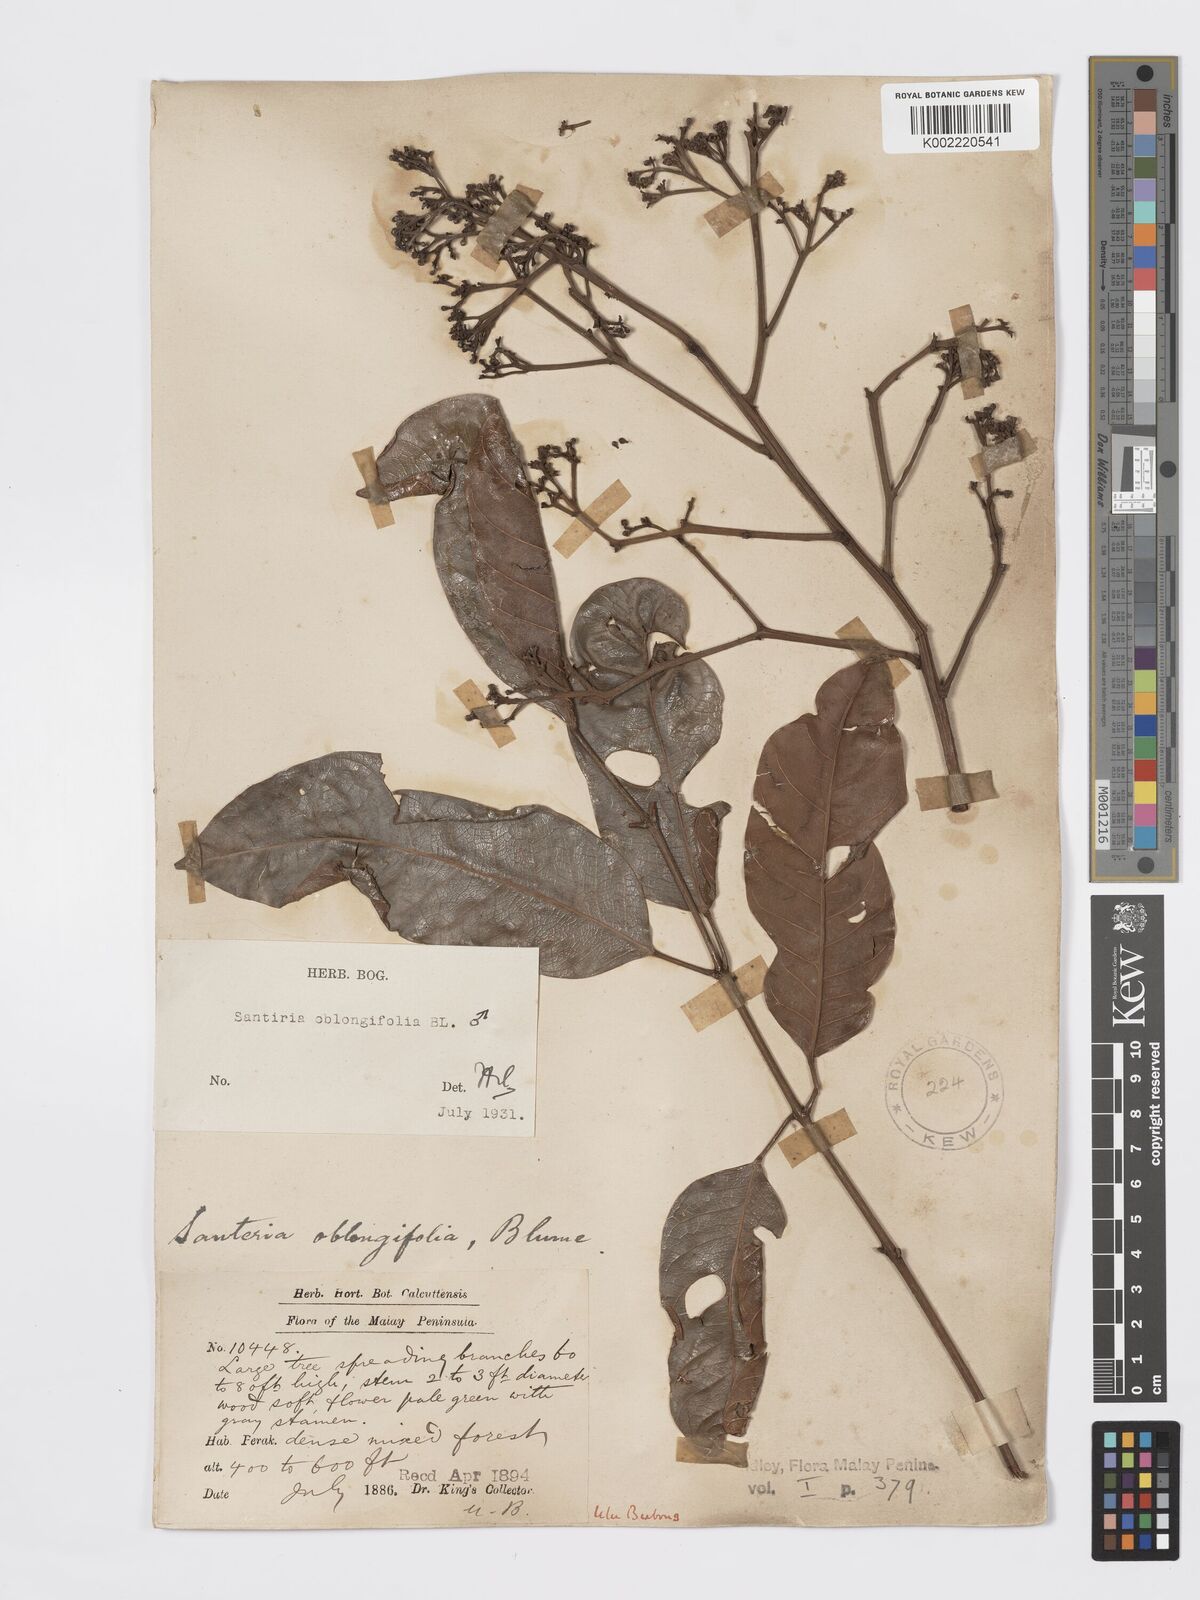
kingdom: Plantae
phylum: Tracheophyta
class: Magnoliopsida
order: Sapindales
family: Burseraceae
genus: Santiria
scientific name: Santiria oblongifolia
